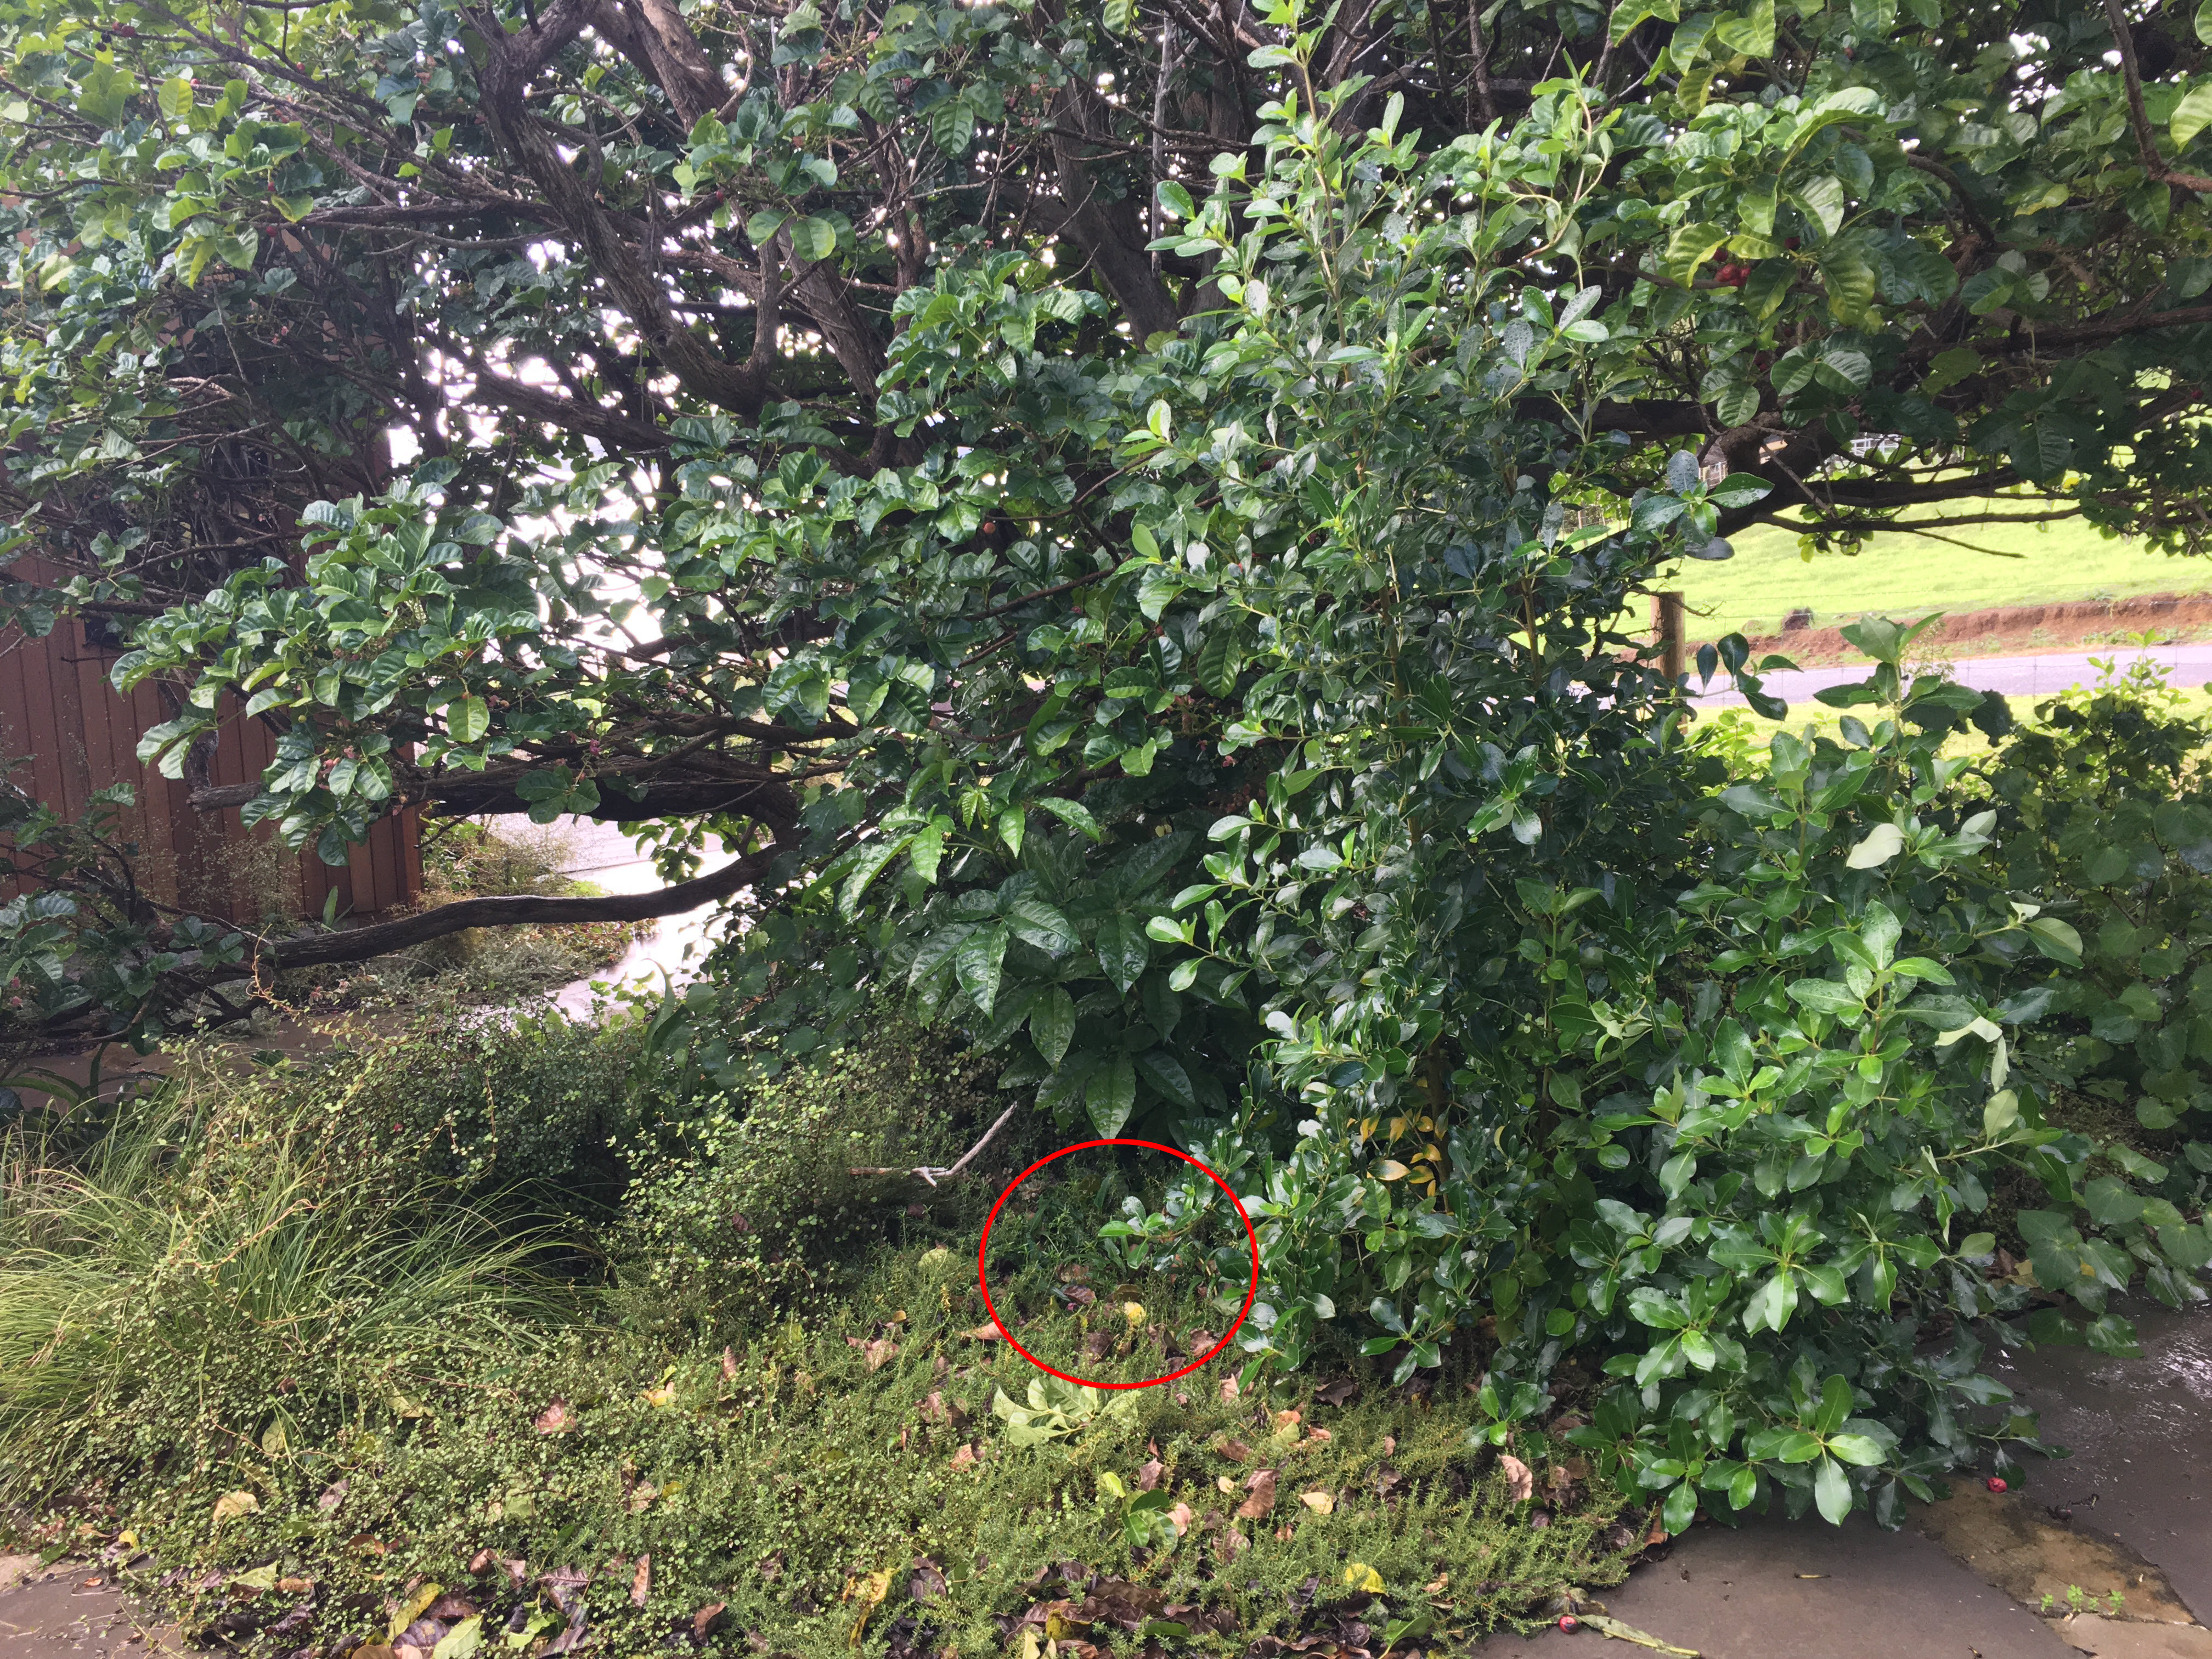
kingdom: Plantae
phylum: Tracheophyta
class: Magnoliopsida
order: Malpighiales
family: Violaceae
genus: Viola
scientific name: Viola betonicifolia
